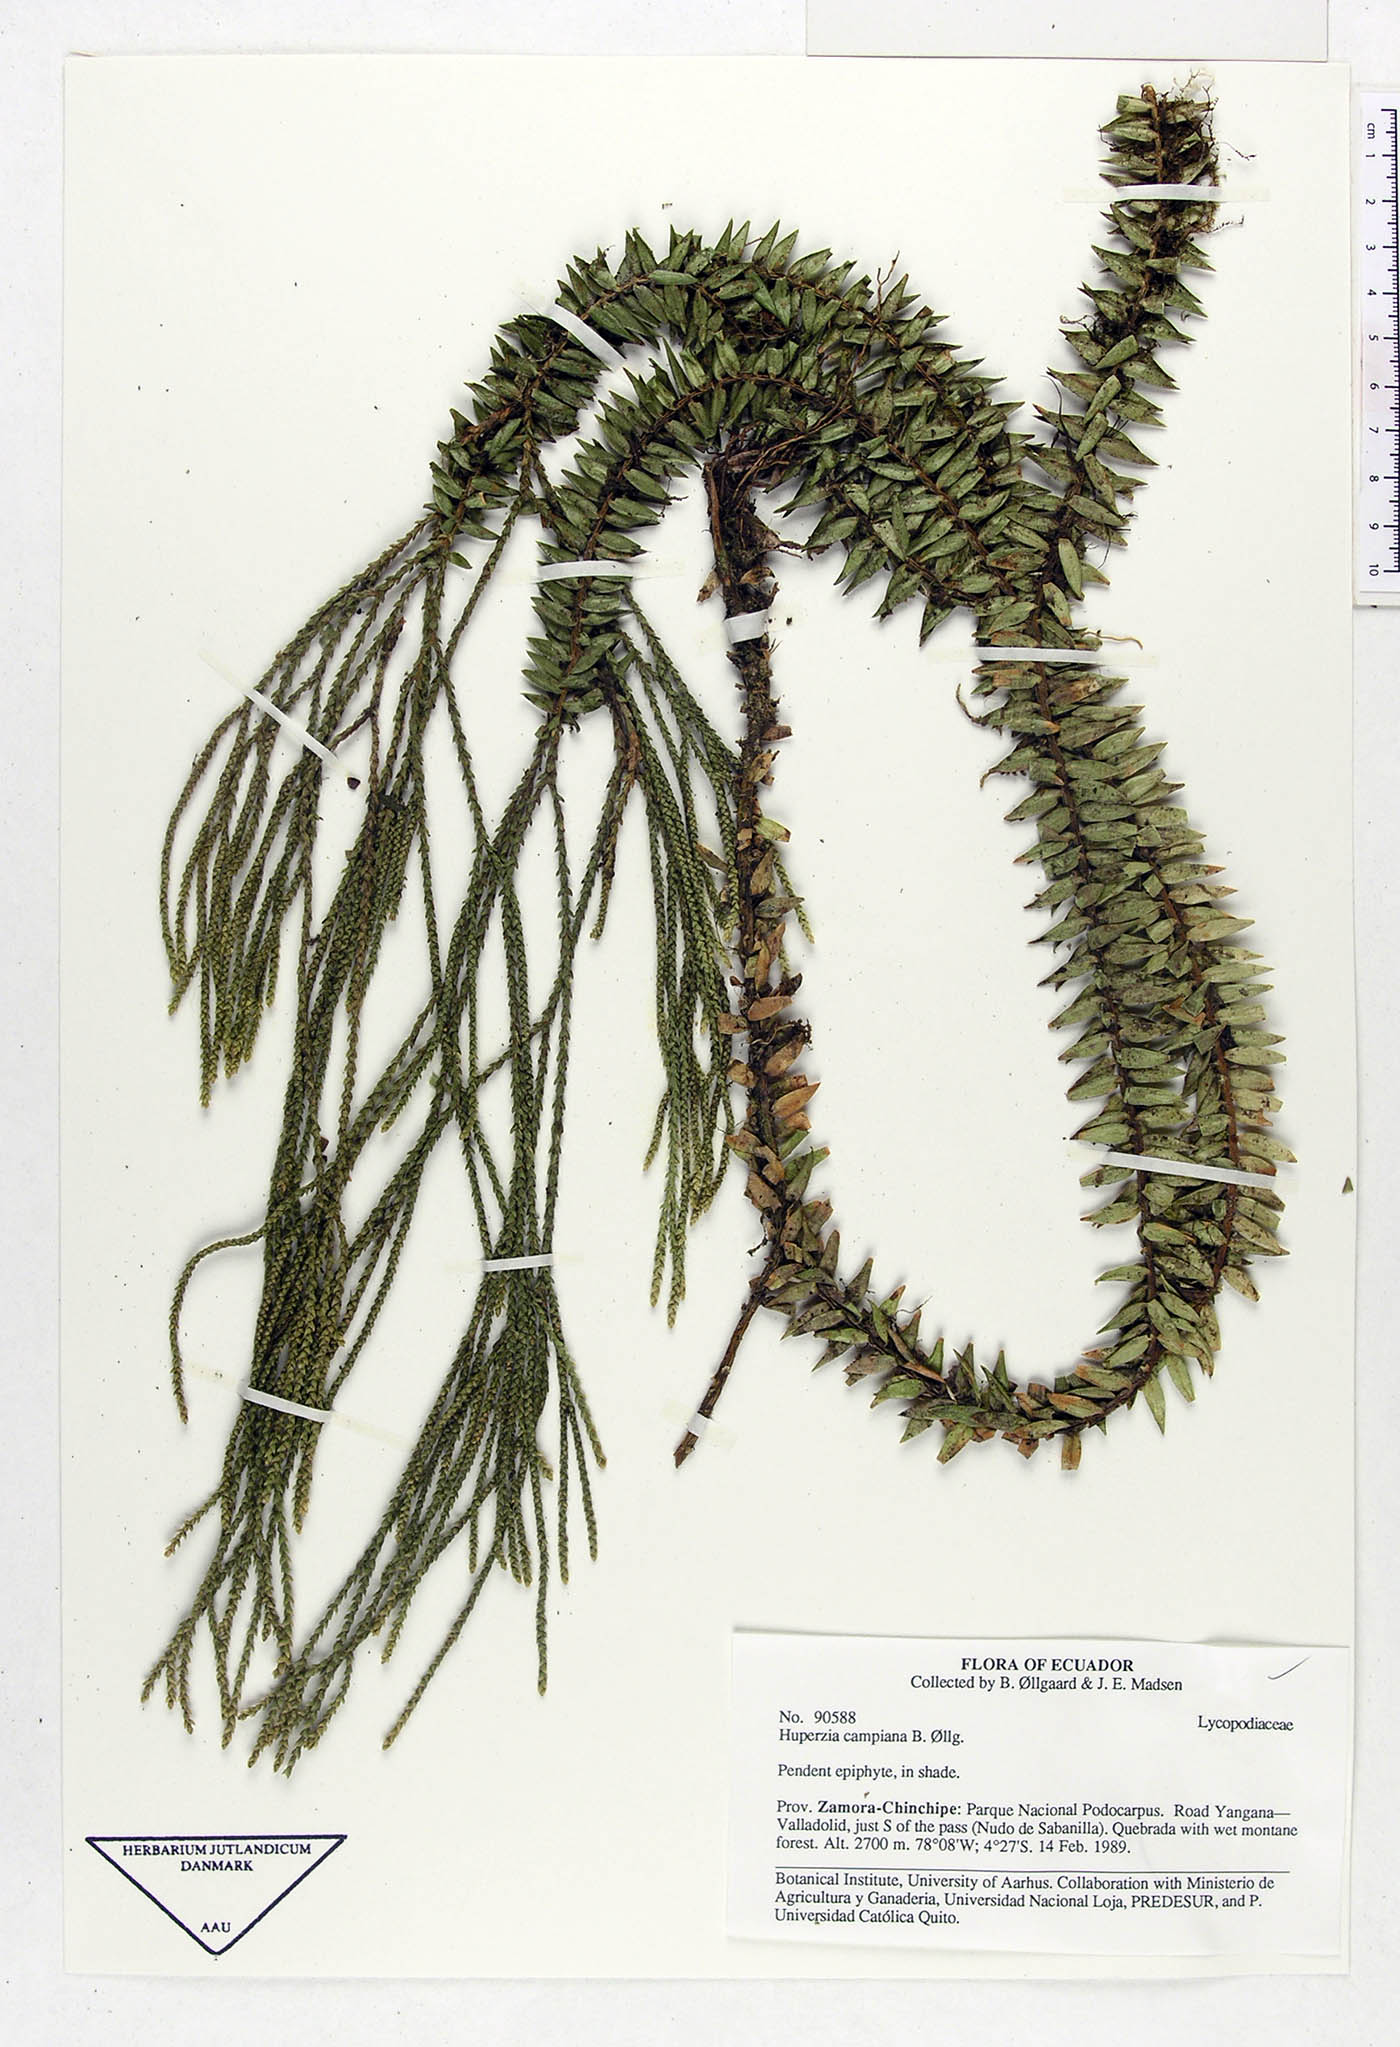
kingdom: Plantae
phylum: Tracheophyta
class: Lycopodiopsida
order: Lycopodiales
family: Lycopodiaceae
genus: Phlegmariurus
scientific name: Phlegmariurus campianus
